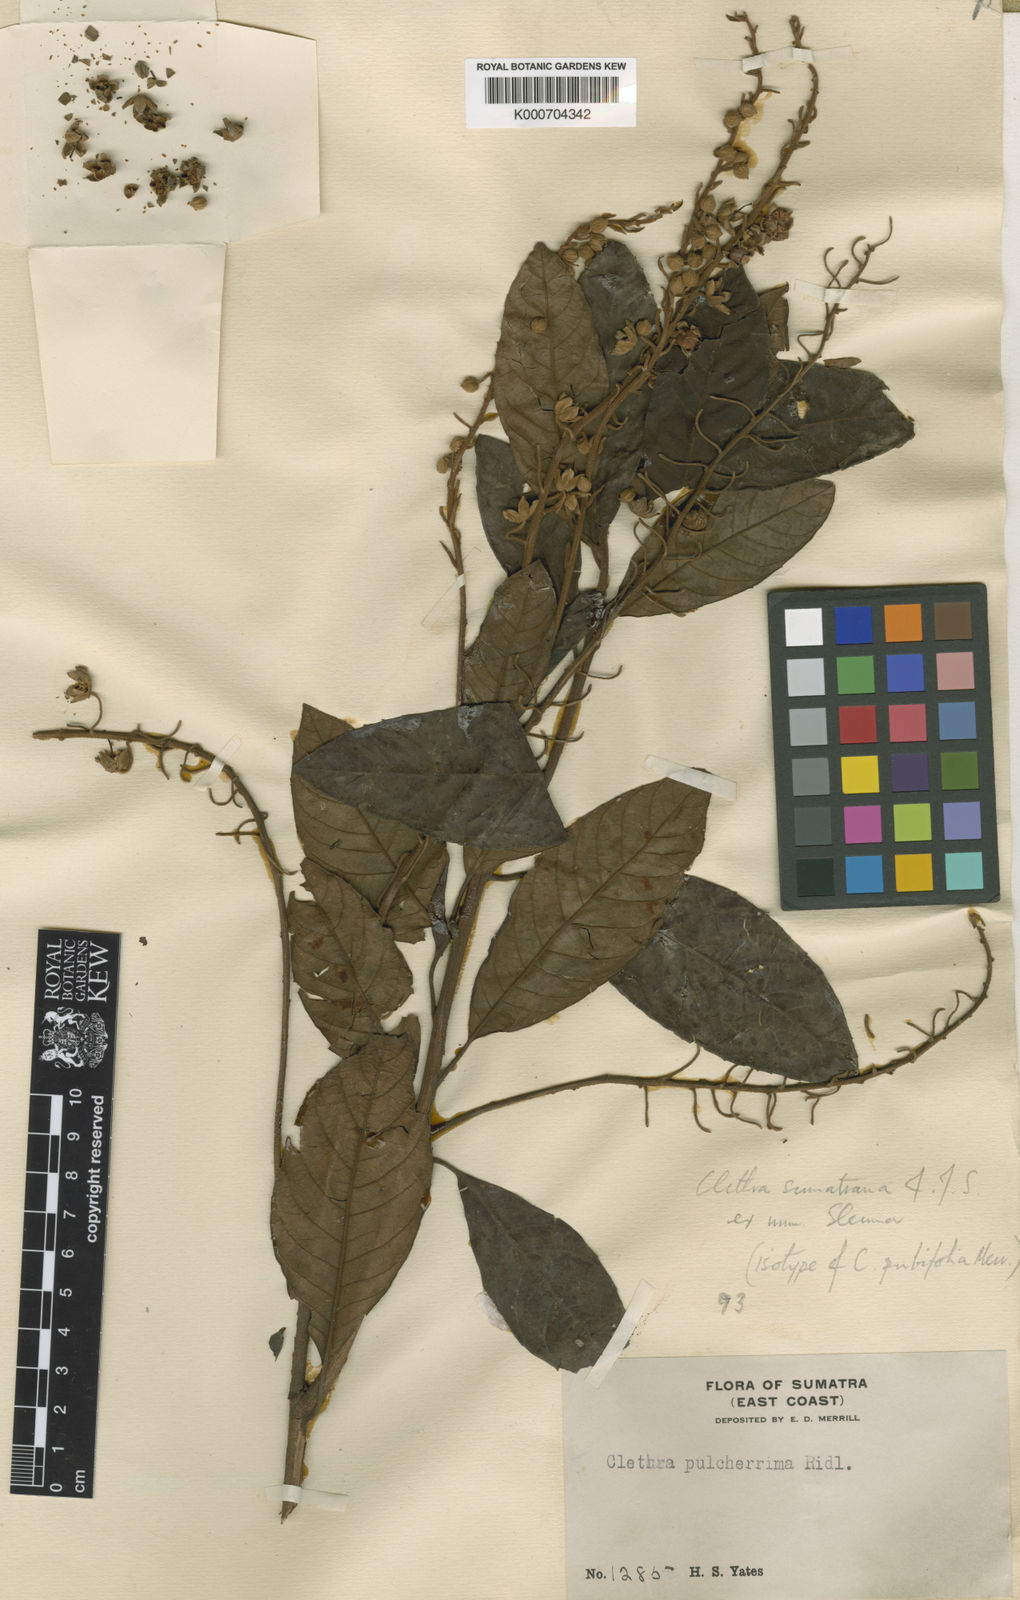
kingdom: Plantae
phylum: Tracheophyta
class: Magnoliopsida
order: Ericales
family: Clethraceae
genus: Clethra
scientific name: Clethra sumatrana
